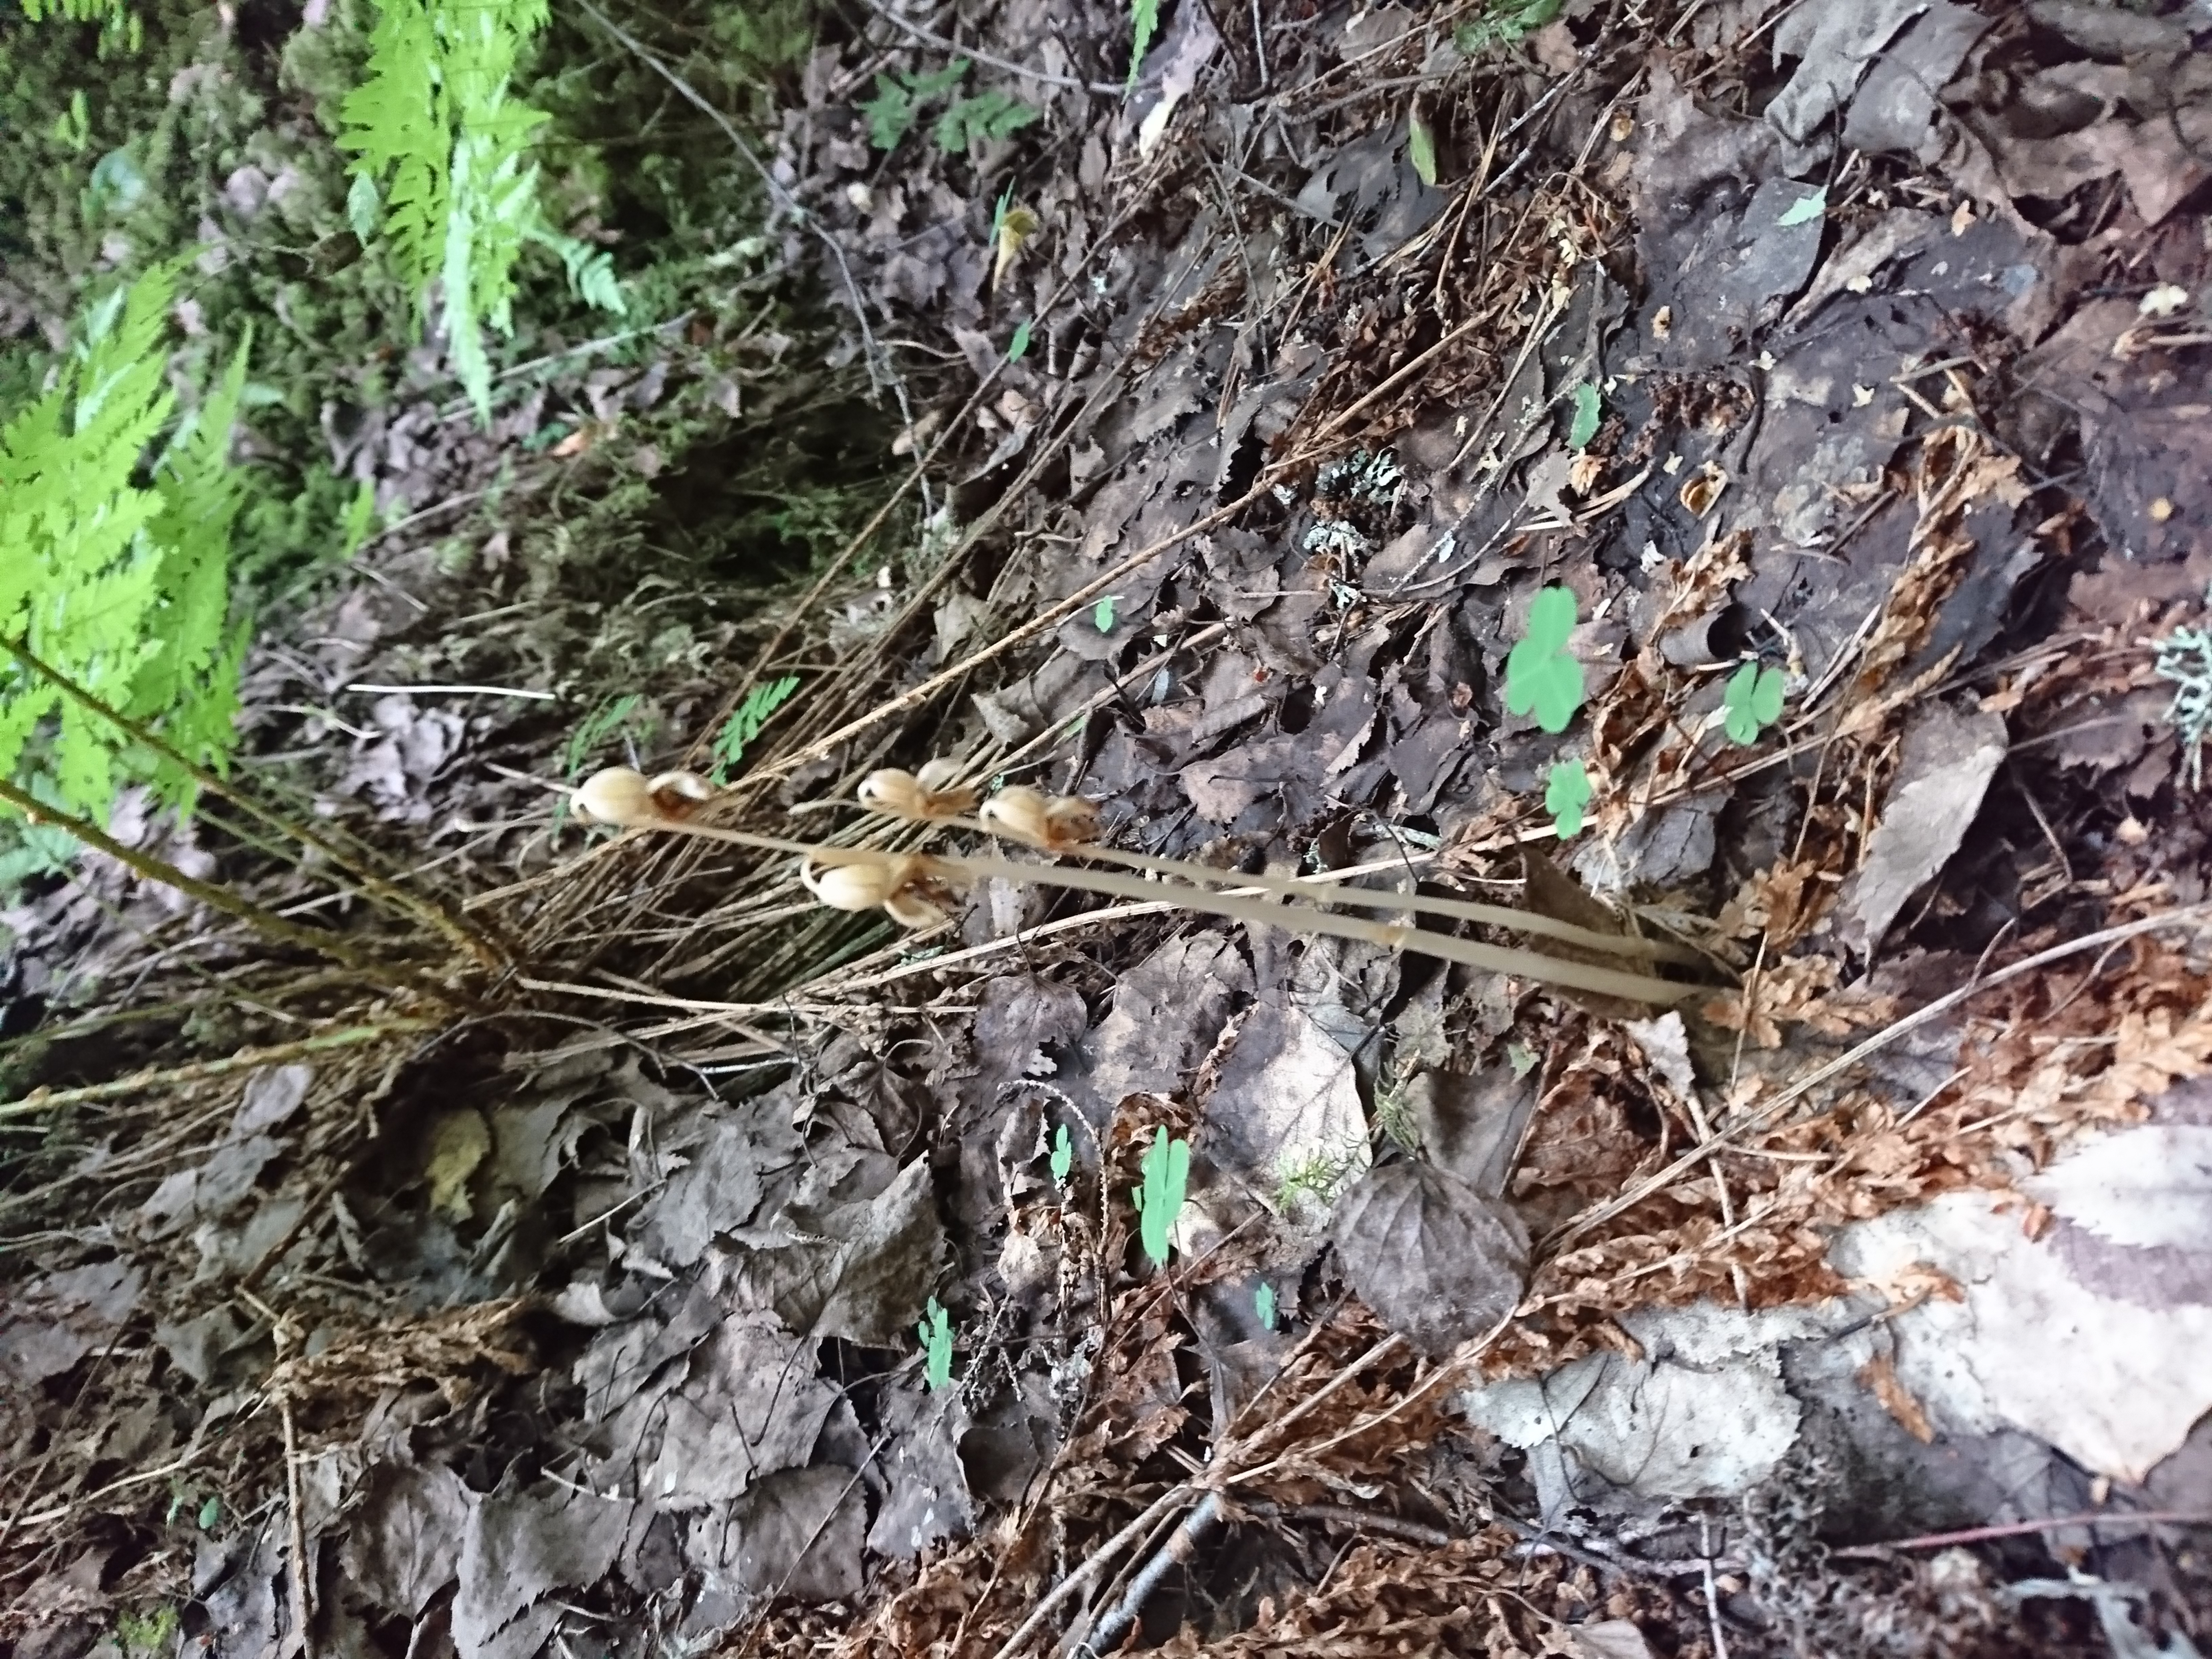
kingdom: Plantae
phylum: Tracheophyta
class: Liliopsida
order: Asparagales
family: Orchidaceae
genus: Epipogium
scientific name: Epipogium aphyllum
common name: Ghost orchid
